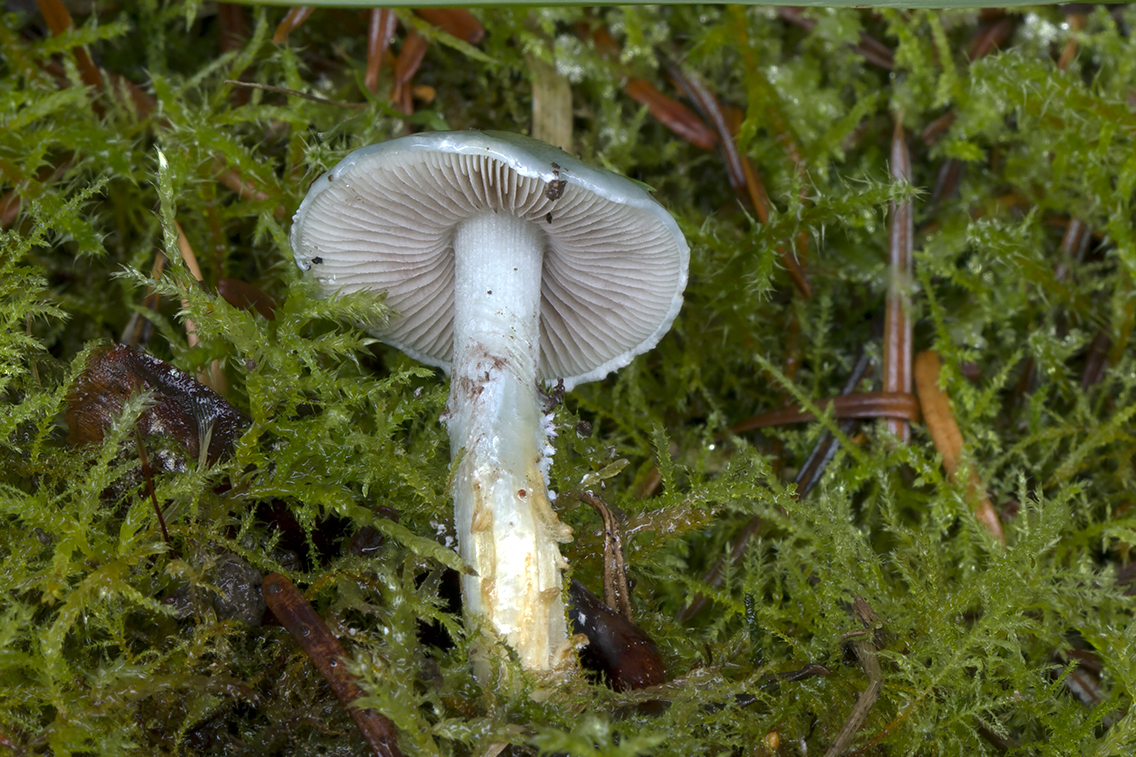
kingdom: Fungi
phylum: Basidiomycota
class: Agaricomycetes
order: Agaricales
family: Strophariaceae
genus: Stropharia
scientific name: Stropharia cyanea
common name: blågrøn bredblad
